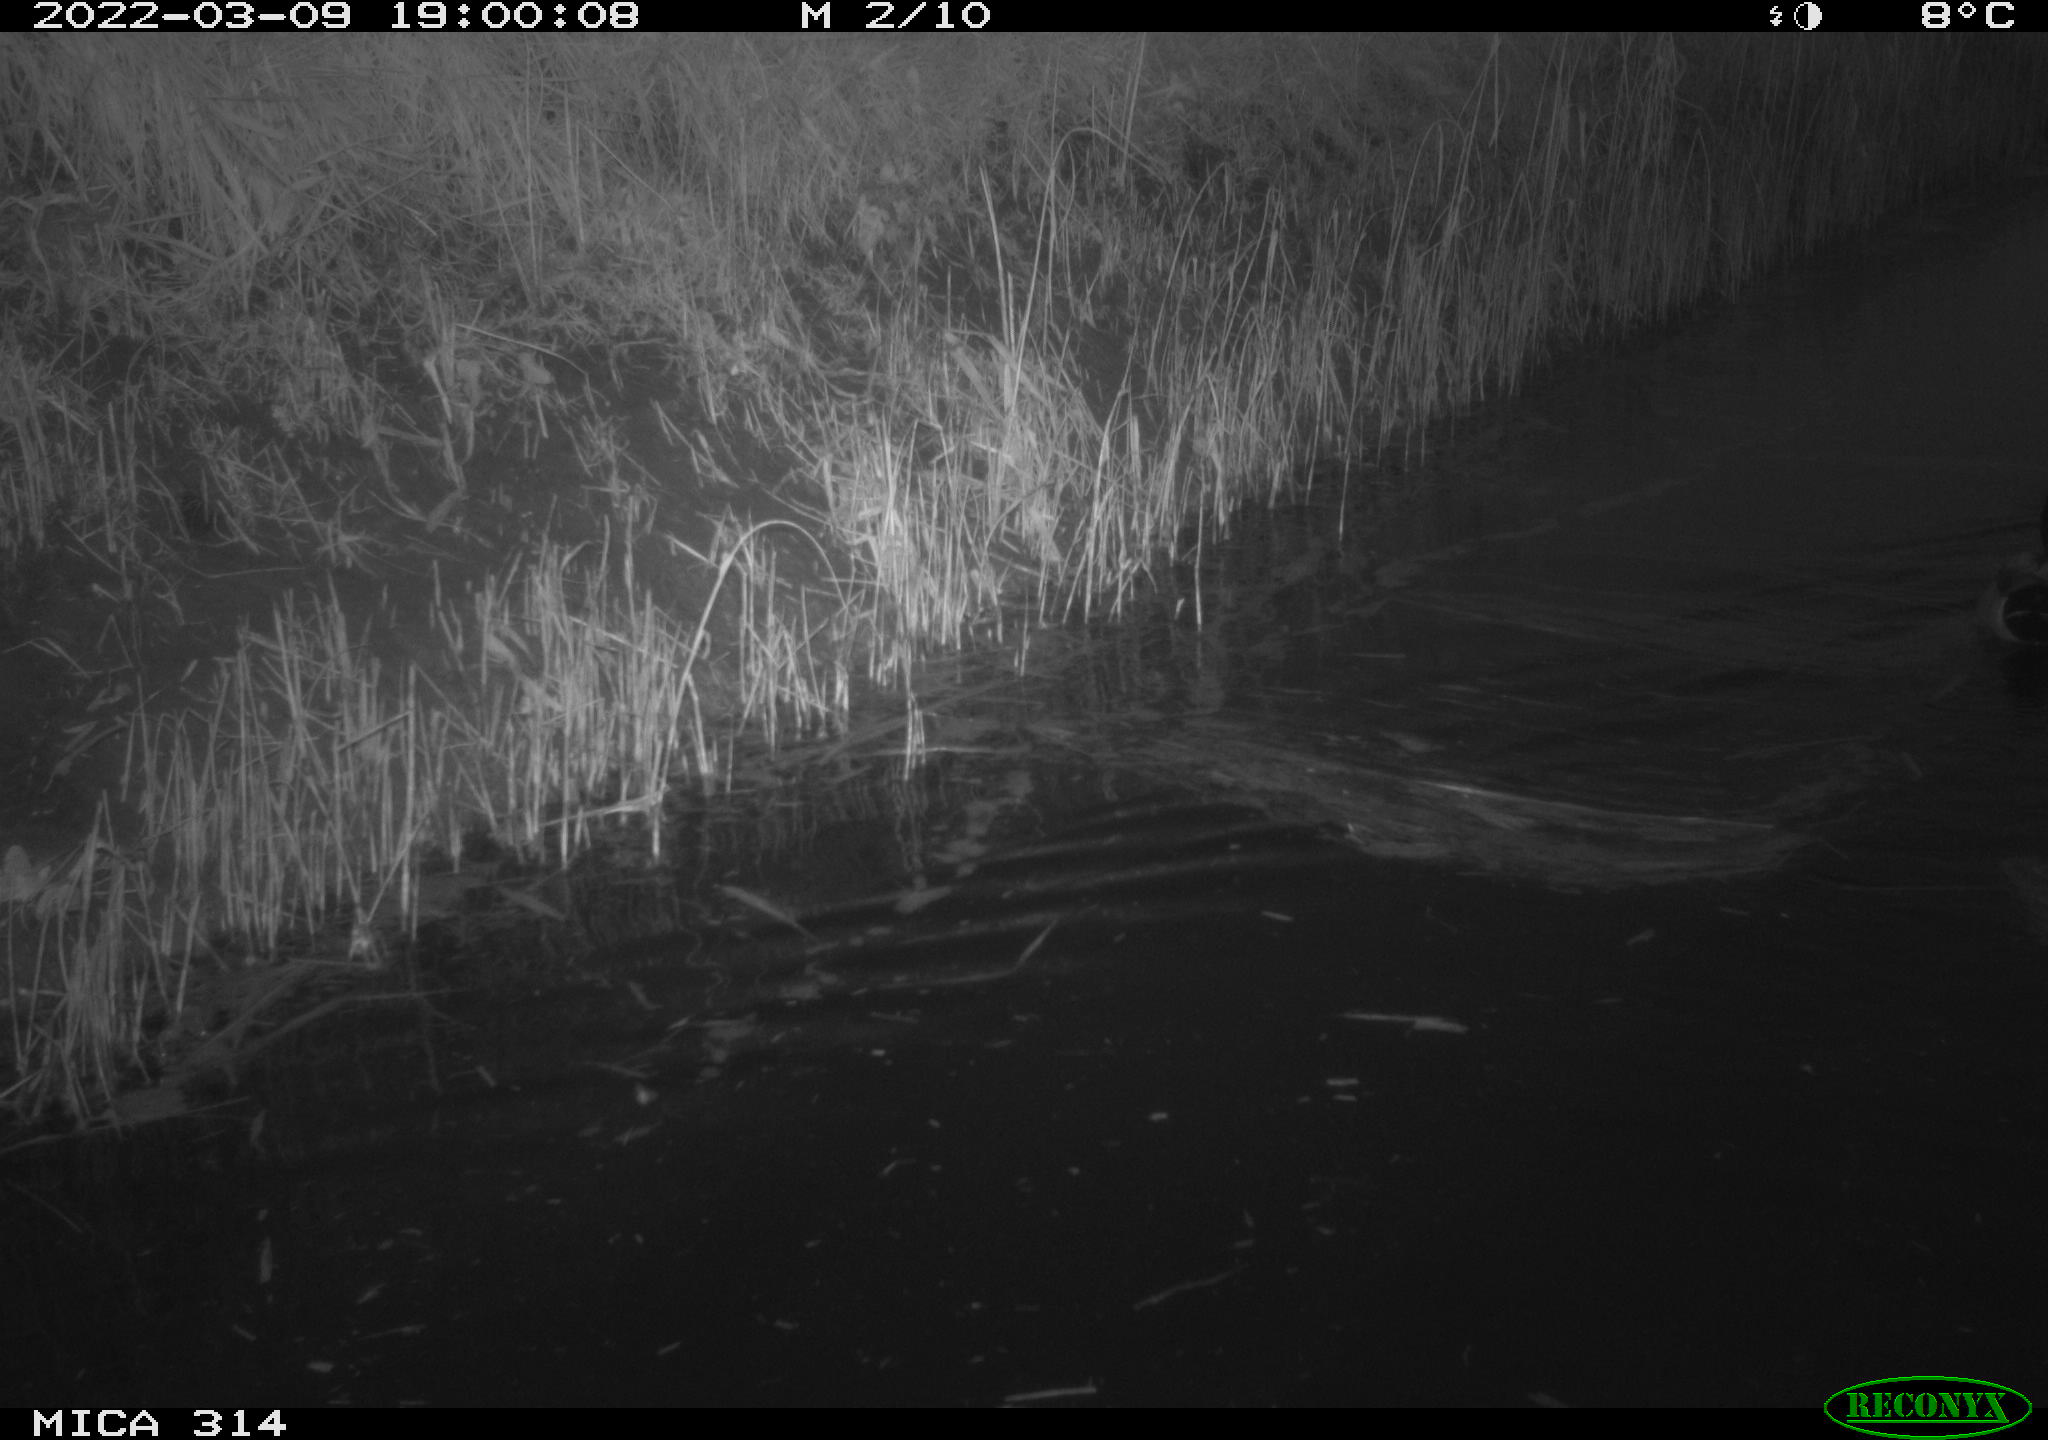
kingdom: Animalia
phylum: Chordata
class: Aves
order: Anseriformes
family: Anatidae
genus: Anas
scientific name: Anas platyrhynchos
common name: Mallard
